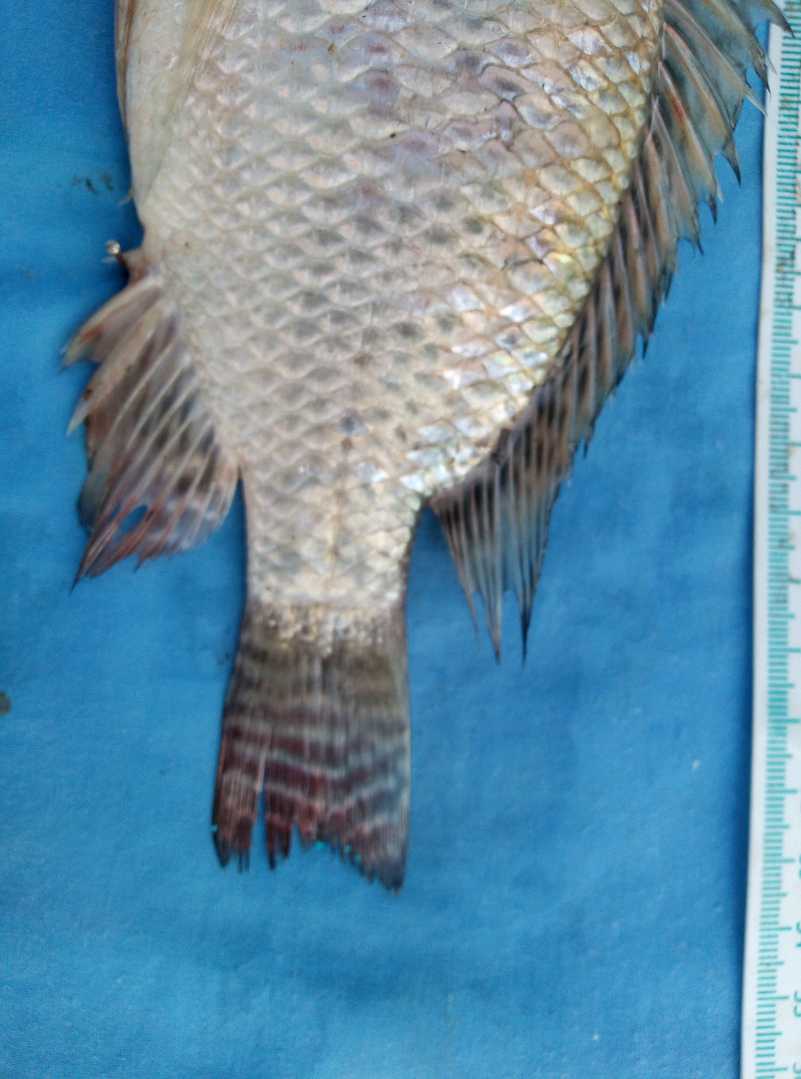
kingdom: Animalia
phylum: Chordata
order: Perciformes
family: Cichlidae
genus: Oreochromis
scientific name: Oreochromis niloticus
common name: Nile tilapia
